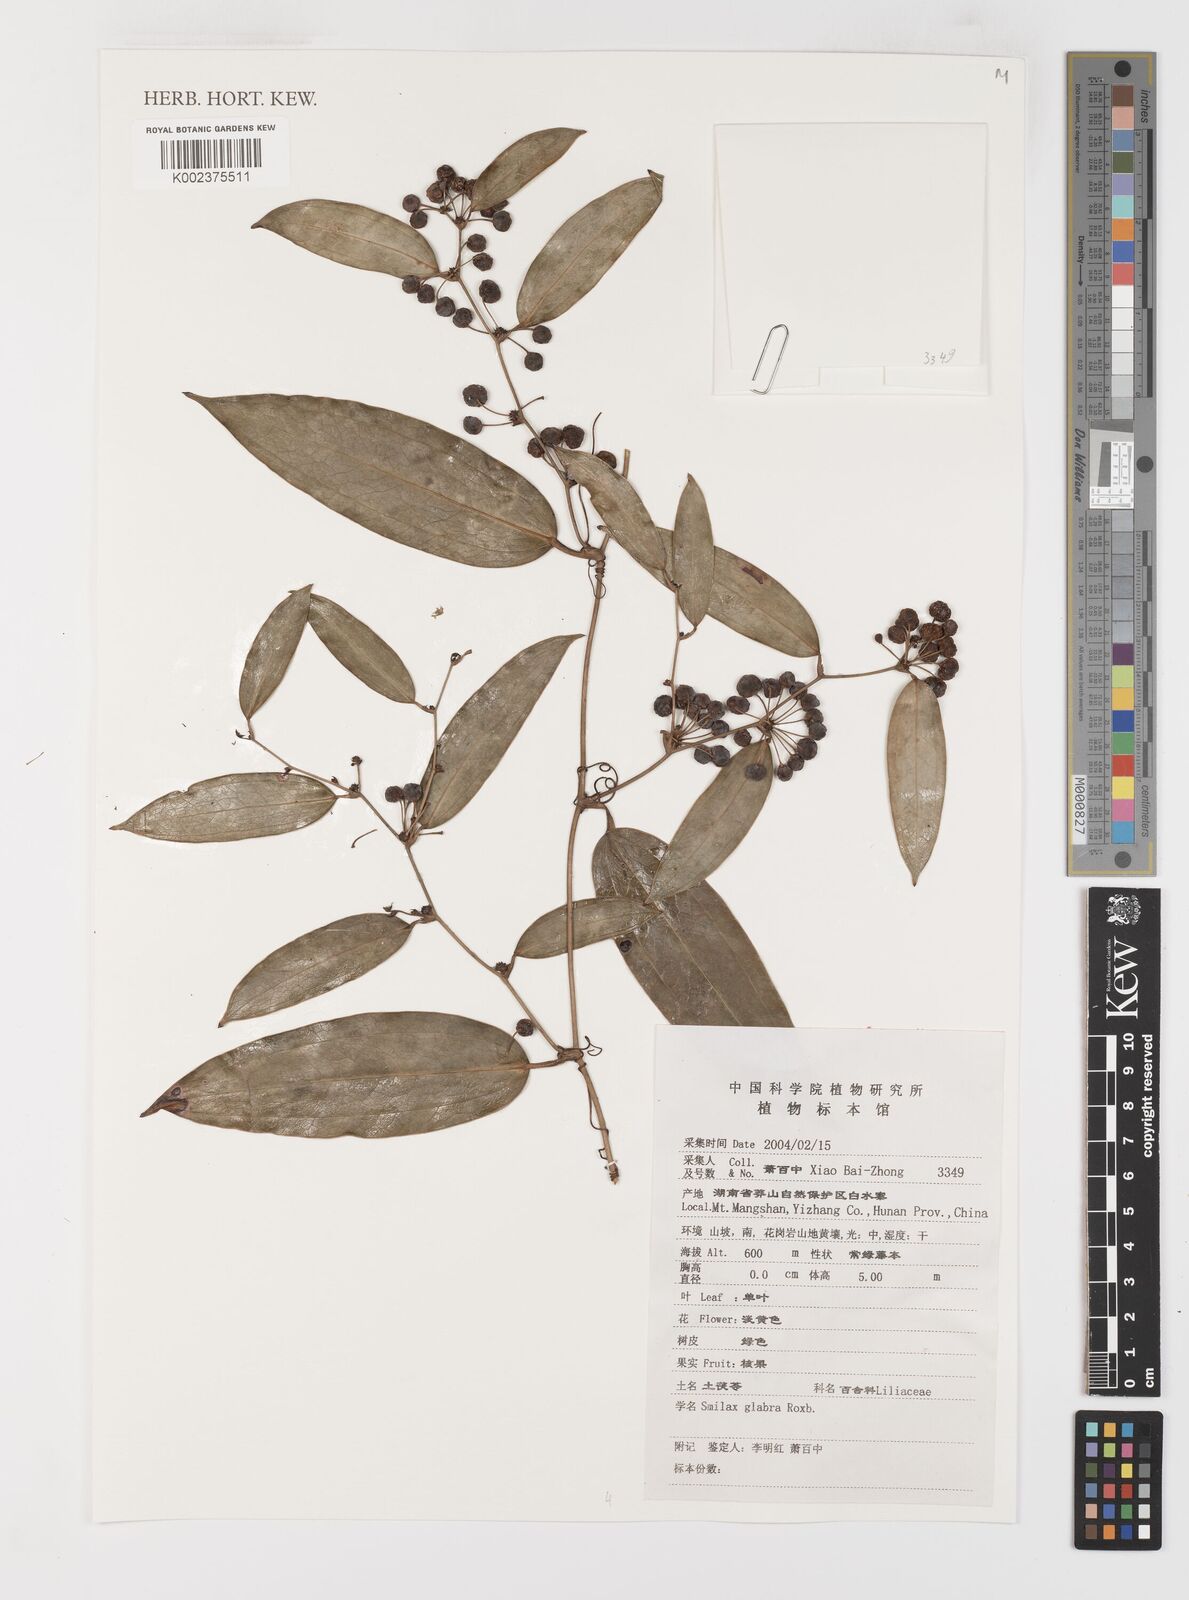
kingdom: Plantae
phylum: Tracheophyta
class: Liliopsida
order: Liliales
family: Smilacaceae
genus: Smilax
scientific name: Smilax glabra
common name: Chinese smilax
